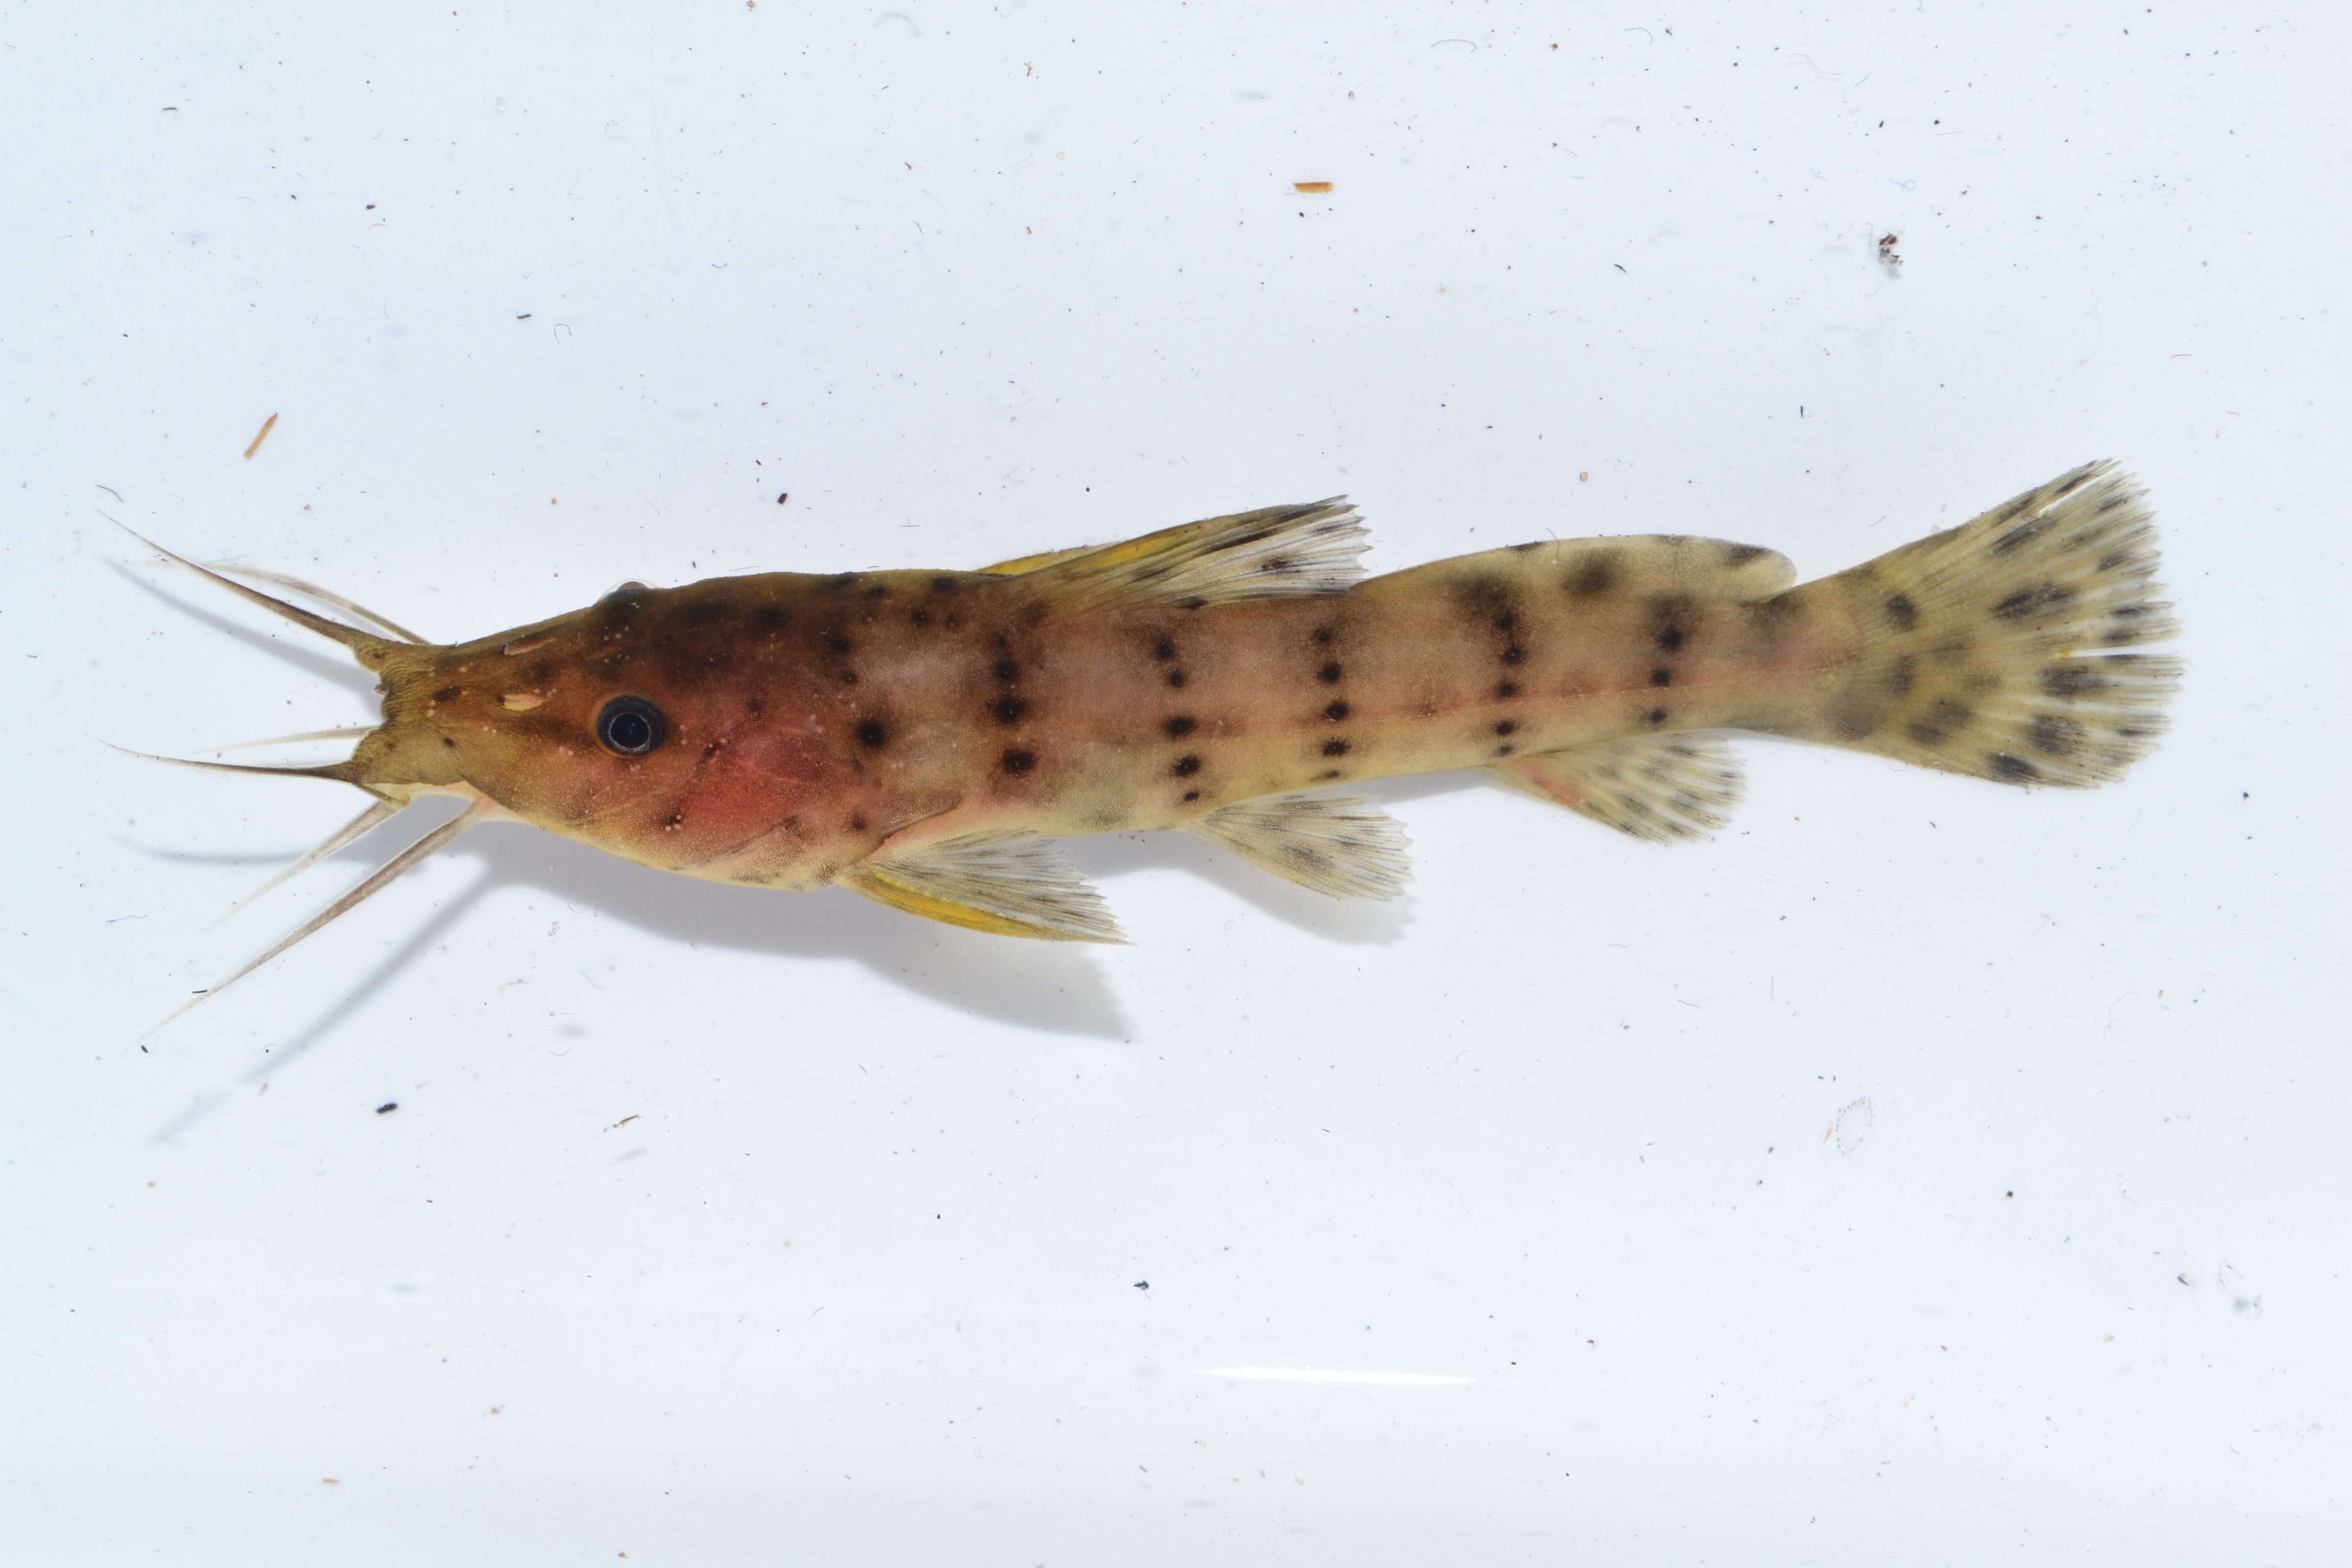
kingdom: Animalia
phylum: Chordata
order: Siluriformes
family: Claroteidae
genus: Parauchenoglanis
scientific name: Parauchenoglanis ngamensis
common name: Zambezi grunter
